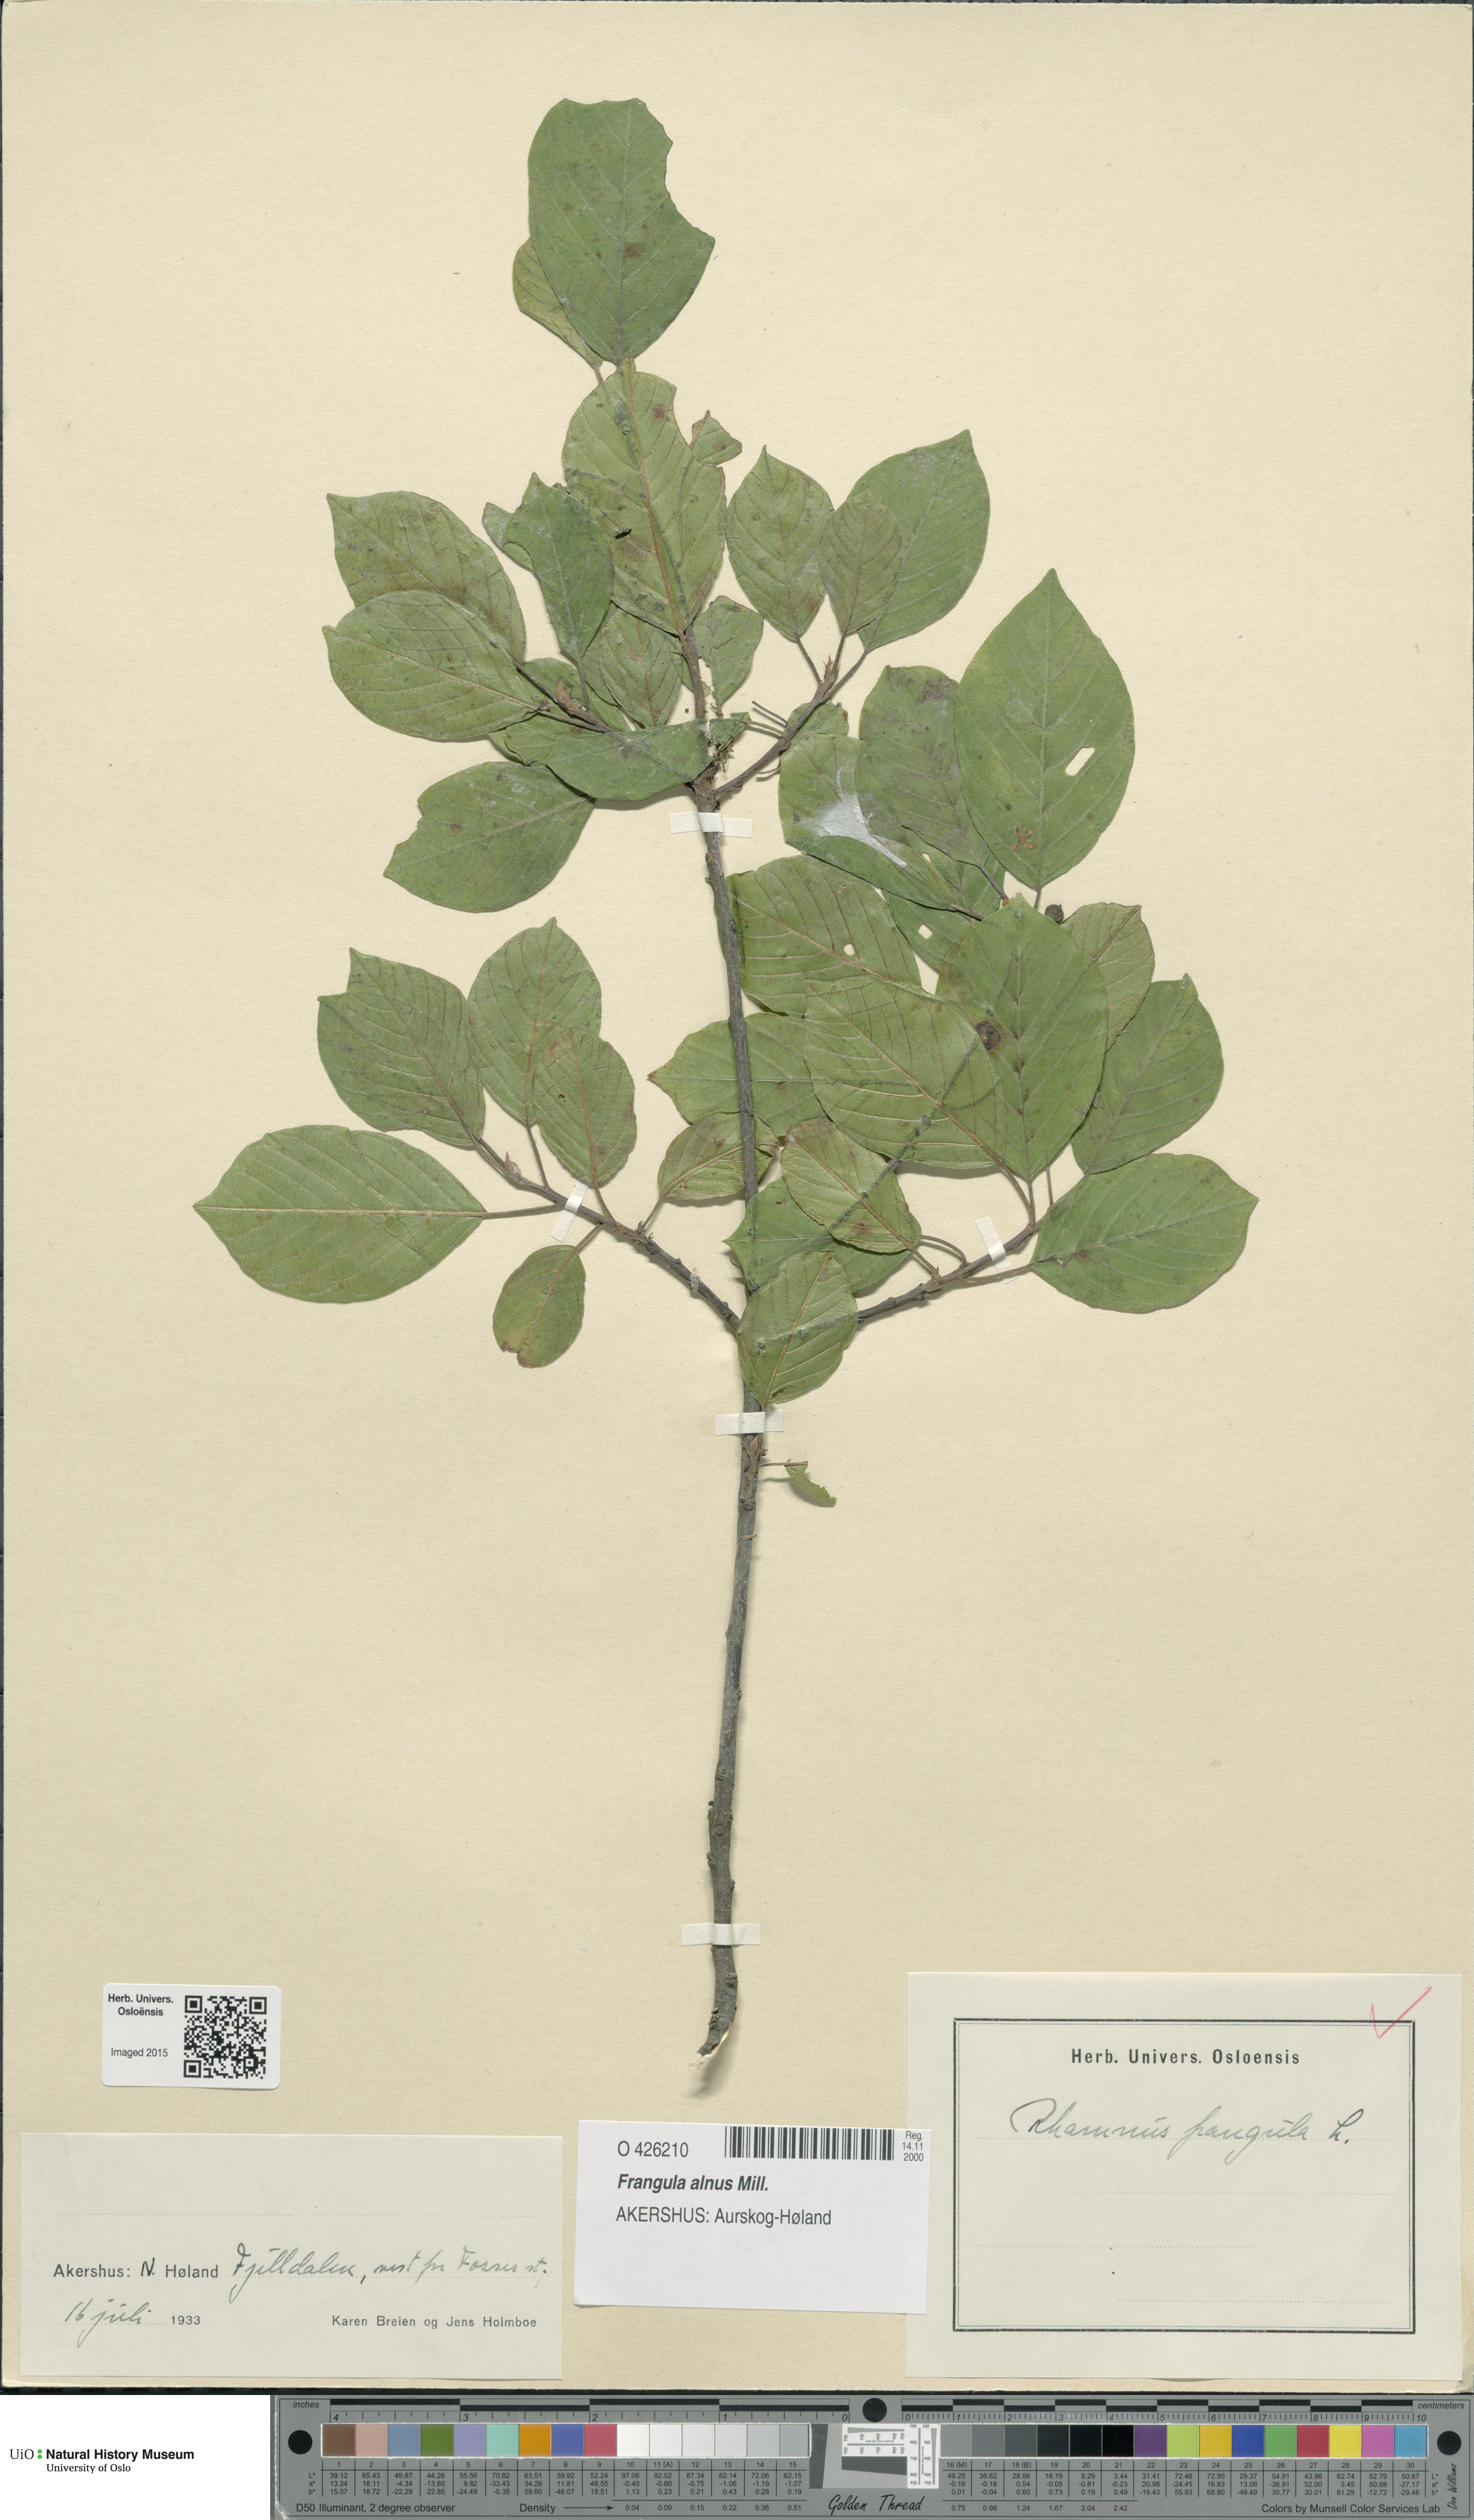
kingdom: Plantae
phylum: Tracheophyta
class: Magnoliopsida
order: Rosales
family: Rhamnaceae
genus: Frangula
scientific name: Frangula alnus
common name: Alder buckthorn
